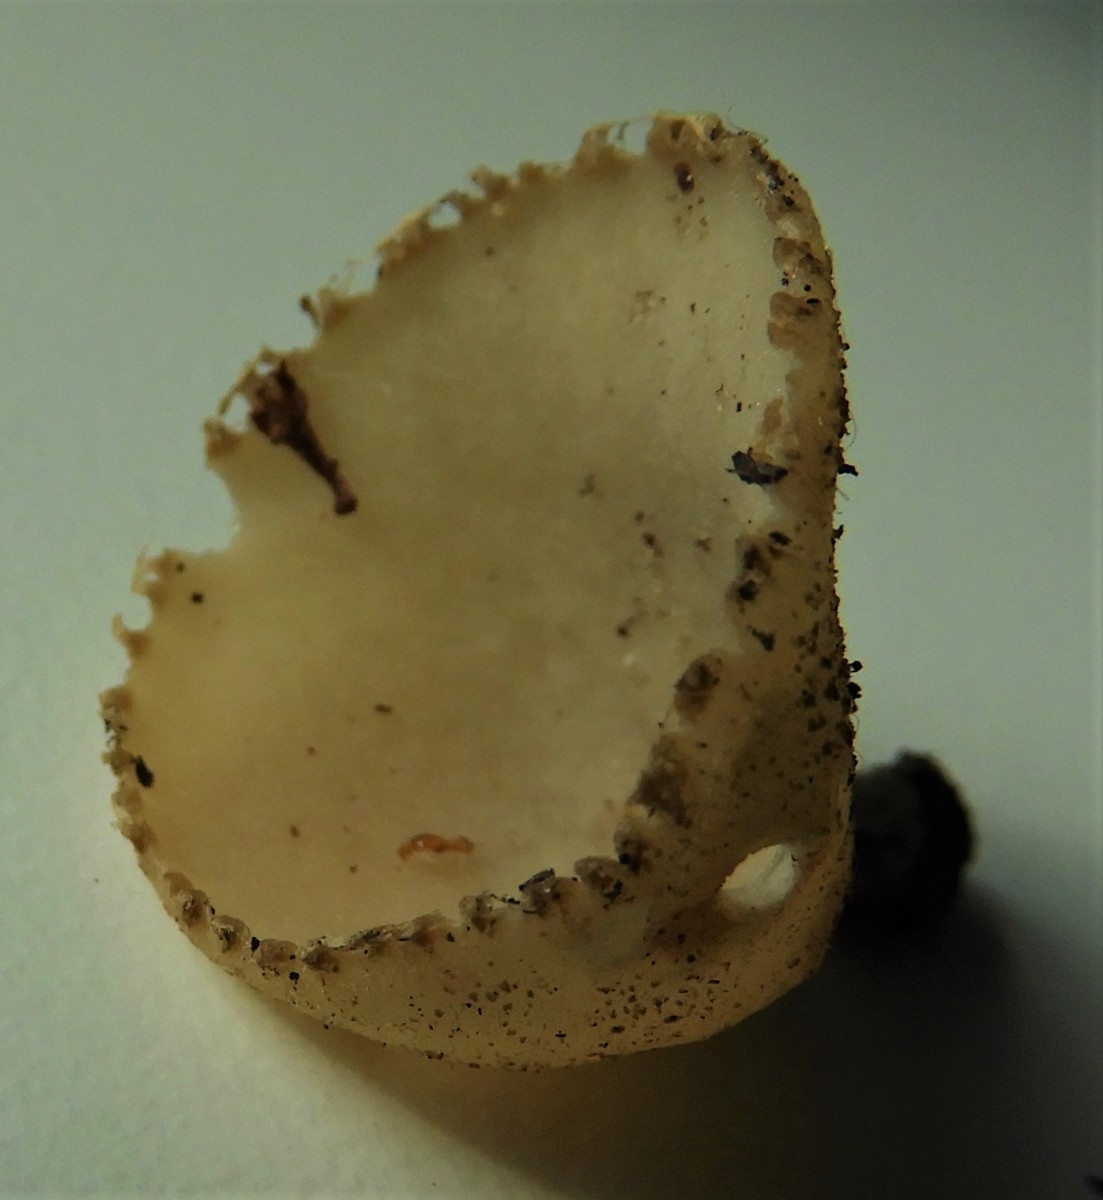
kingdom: Fungi
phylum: Ascomycota
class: Pezizomycetes
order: Pezizales
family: Pyronemataceae
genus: Tarzetta
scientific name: Tarzetta cupularis
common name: gulbrun pokalbæger
